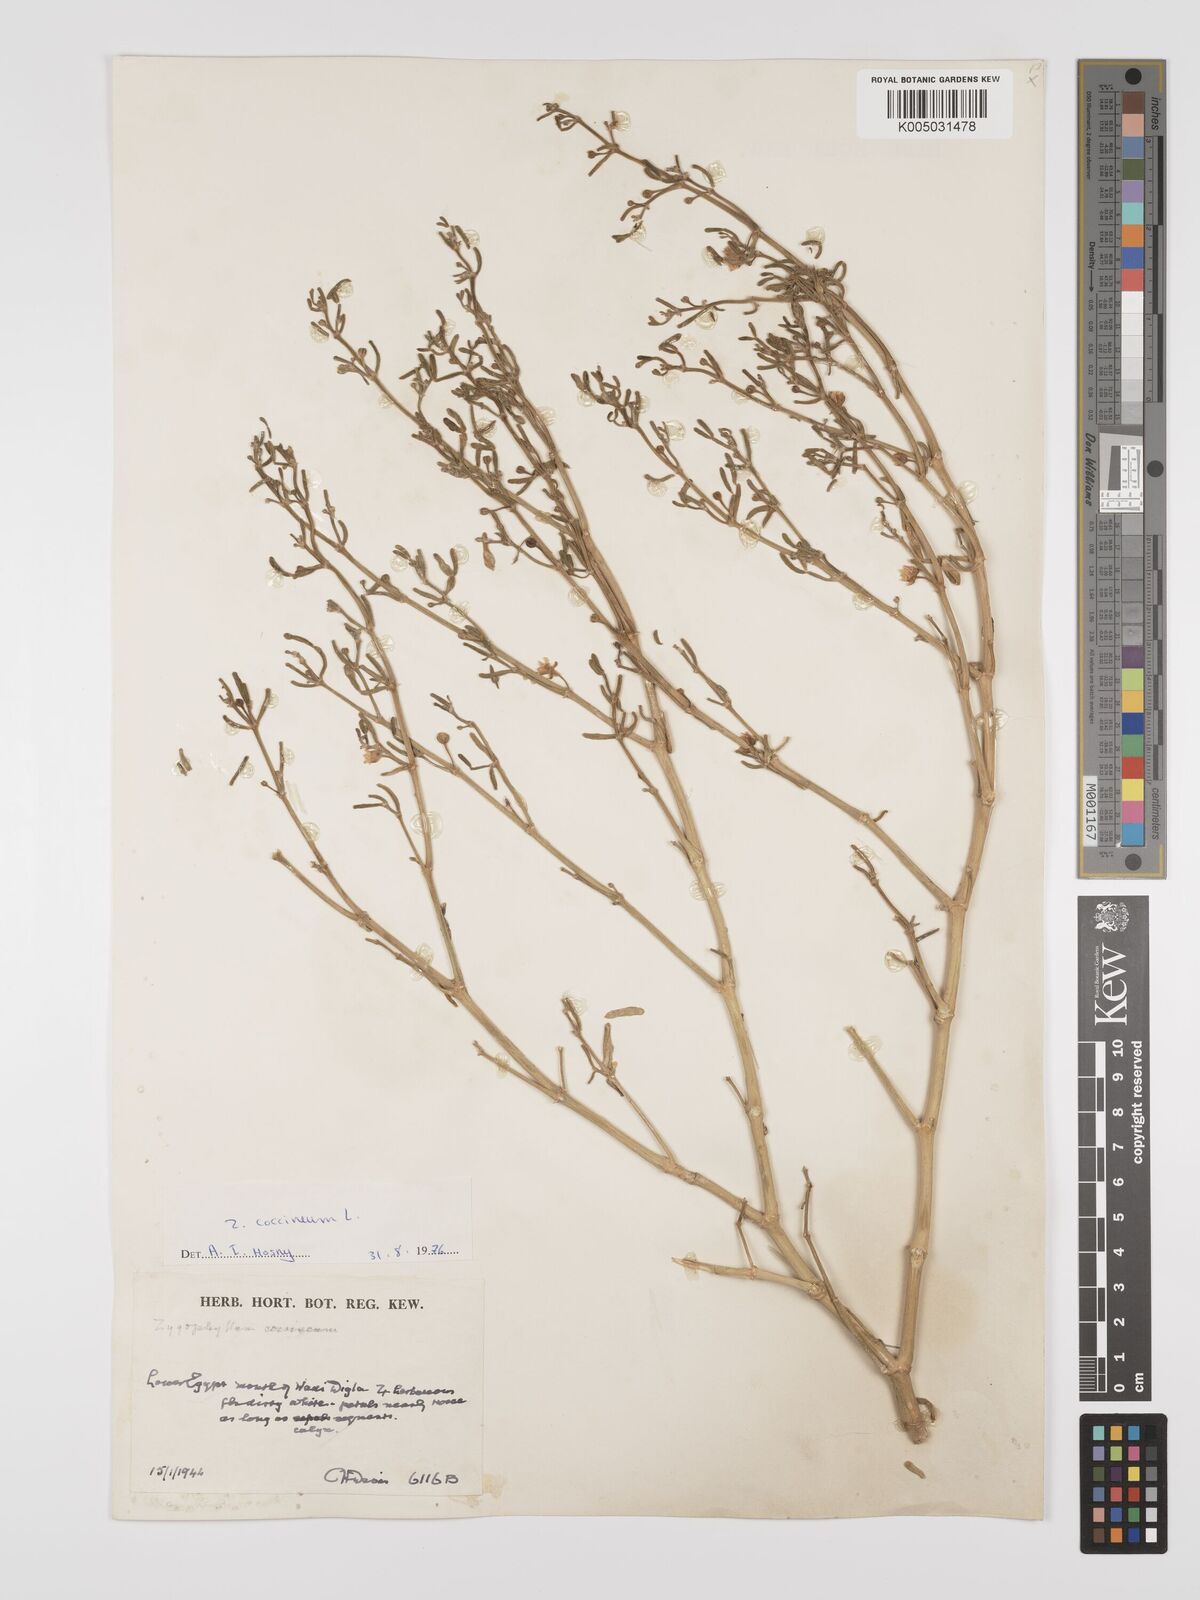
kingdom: Plantae
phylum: Tracheophyta
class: Magnoliopsida
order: Zygophyllales
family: Zygophyllaceae
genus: Tetraena
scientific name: Tetraena coccinea
